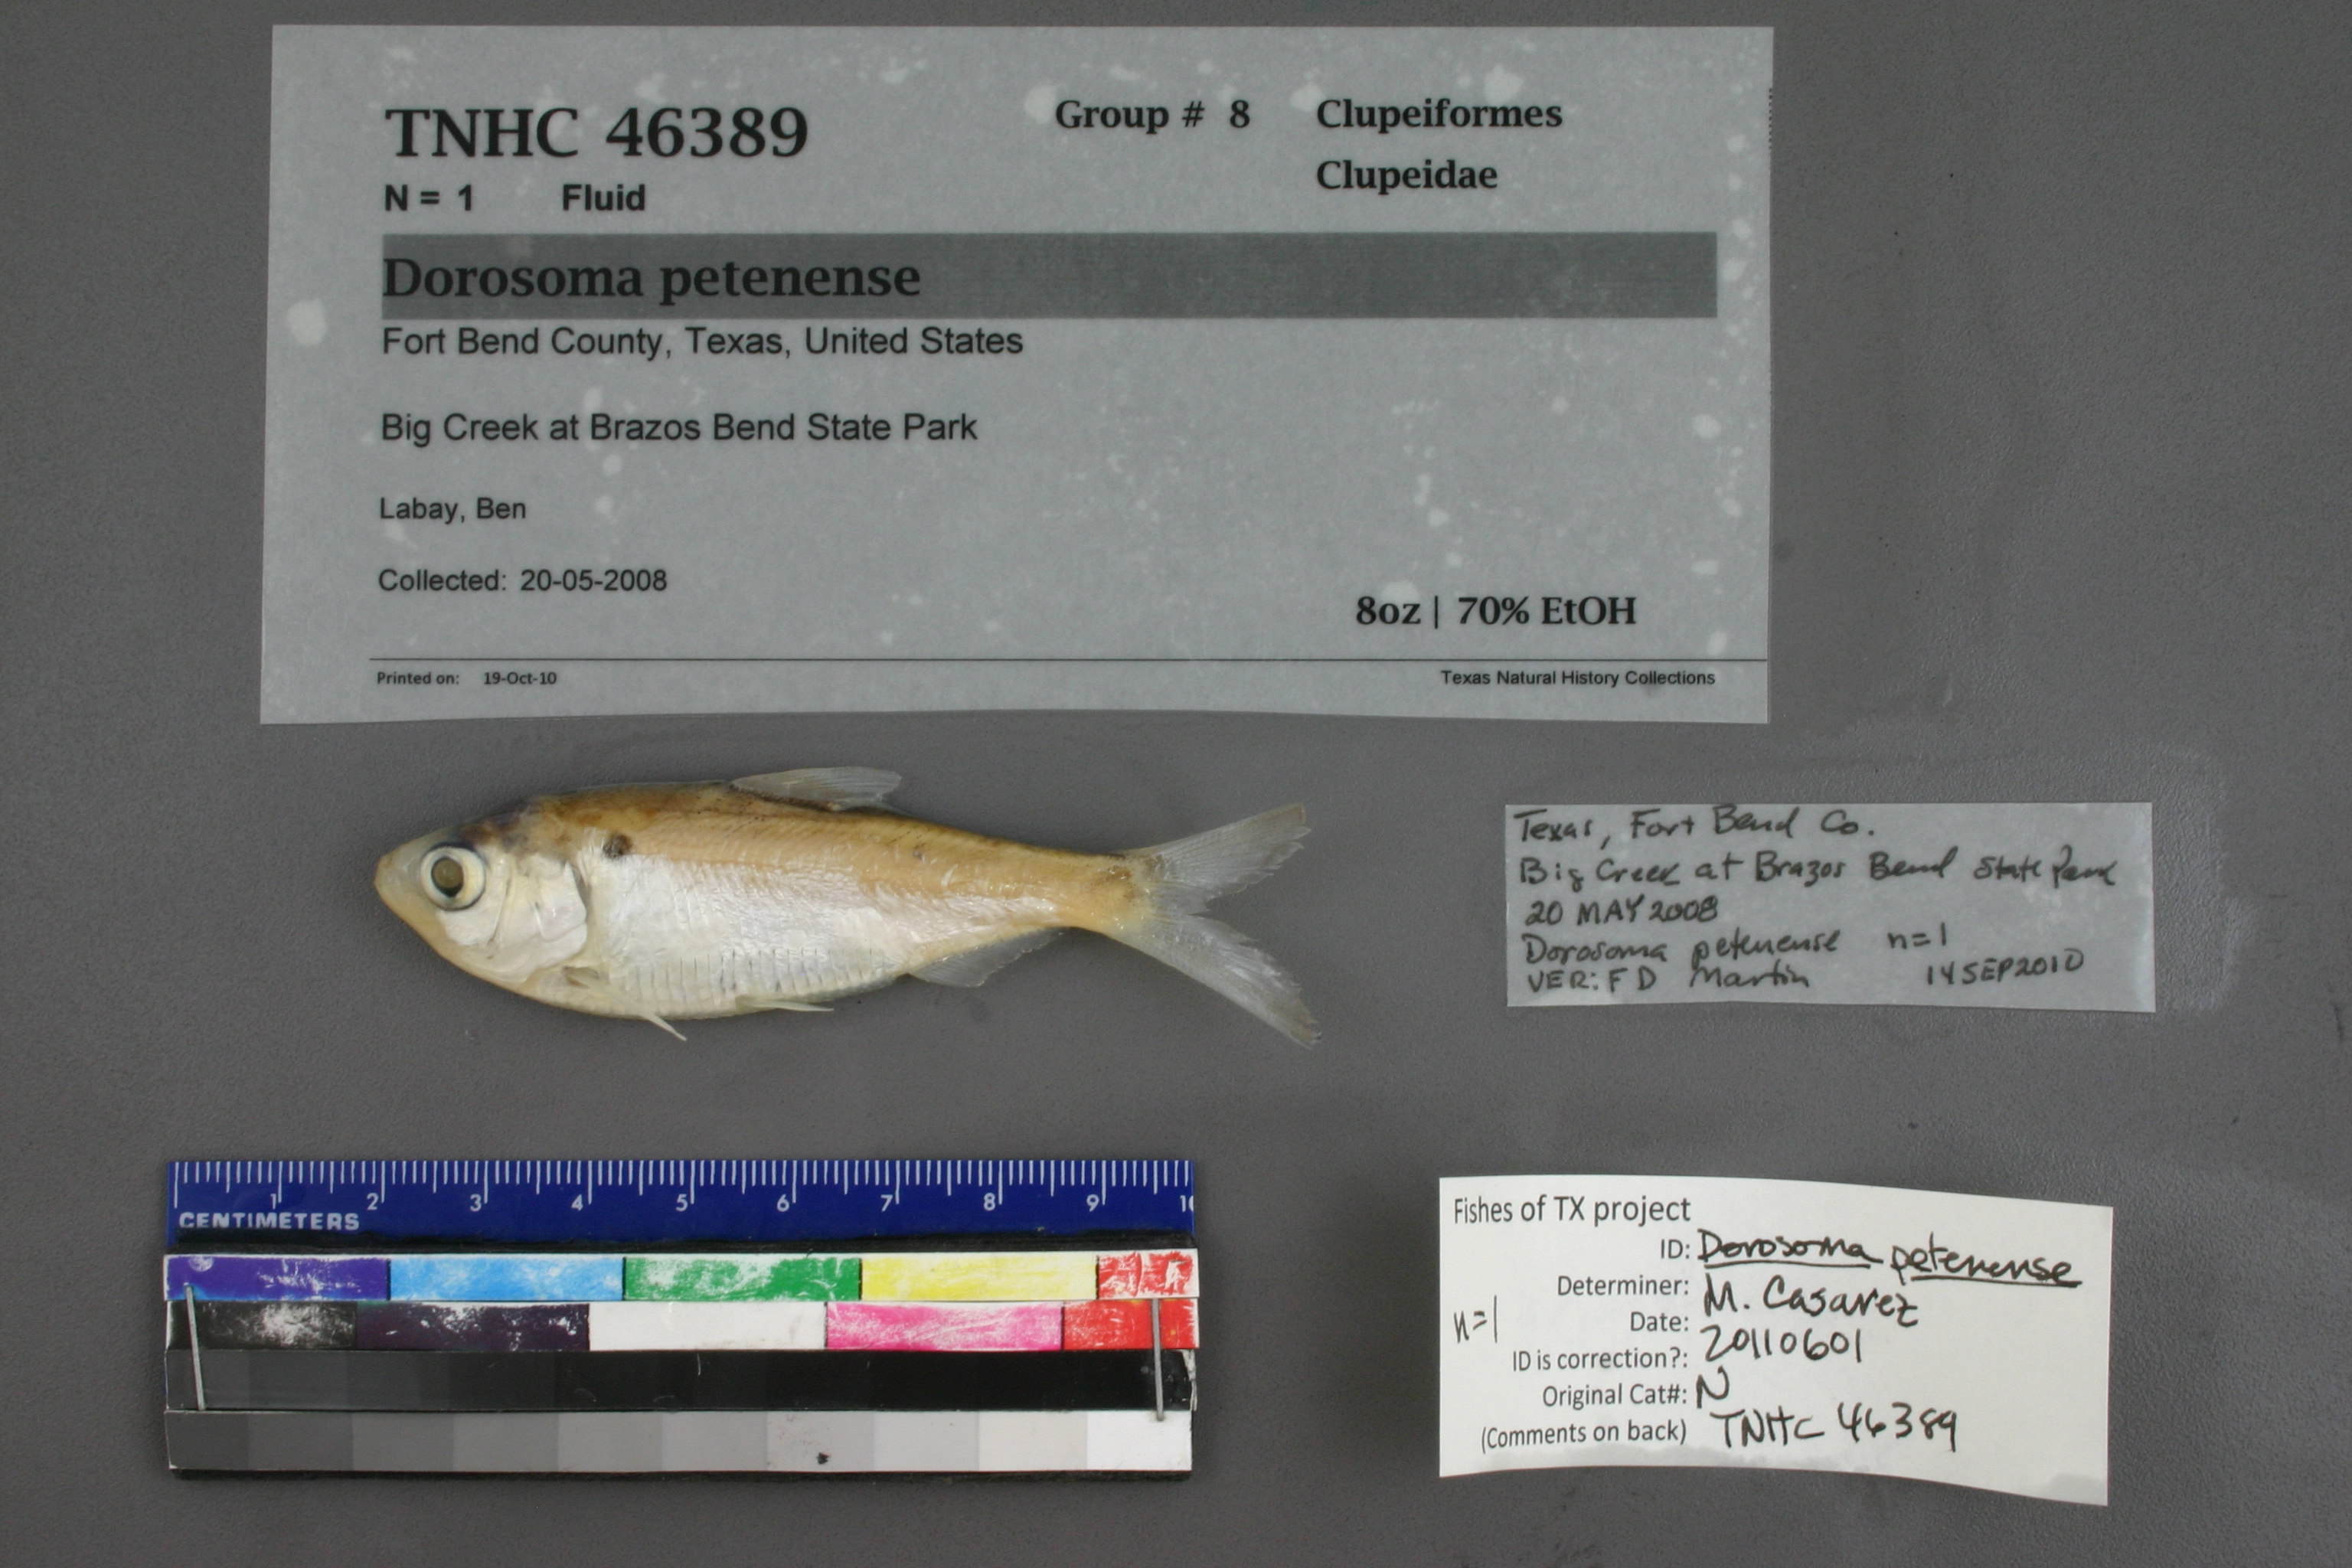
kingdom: Animalia
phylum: Chordata
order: Clupeiformes
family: Clupeidae
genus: Dorosoma
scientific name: Dorosoma petenense
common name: Threadfin shad
